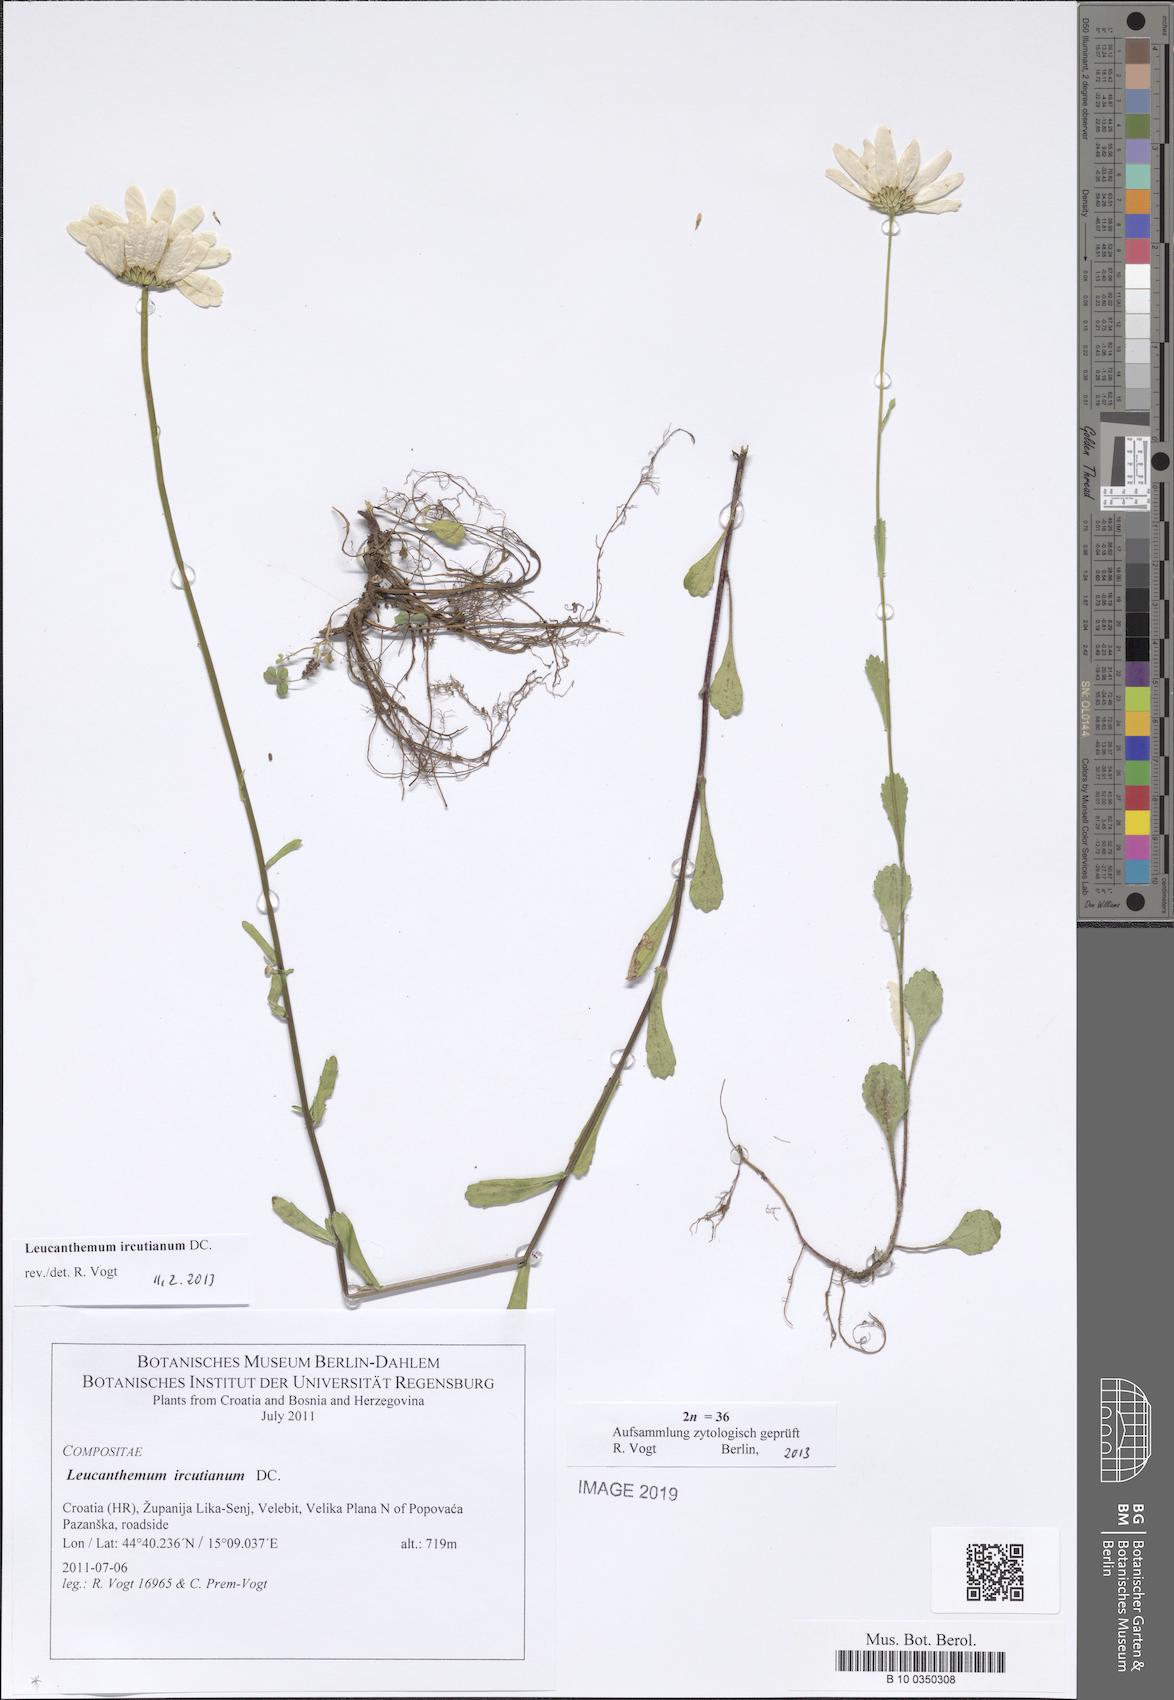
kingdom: Plantae
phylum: Tracheophyta
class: Magnoliopsida
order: Asterales
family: Asteraceae
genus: Leucanthemum
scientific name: Leucanthemum ircutianum
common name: Daisy
